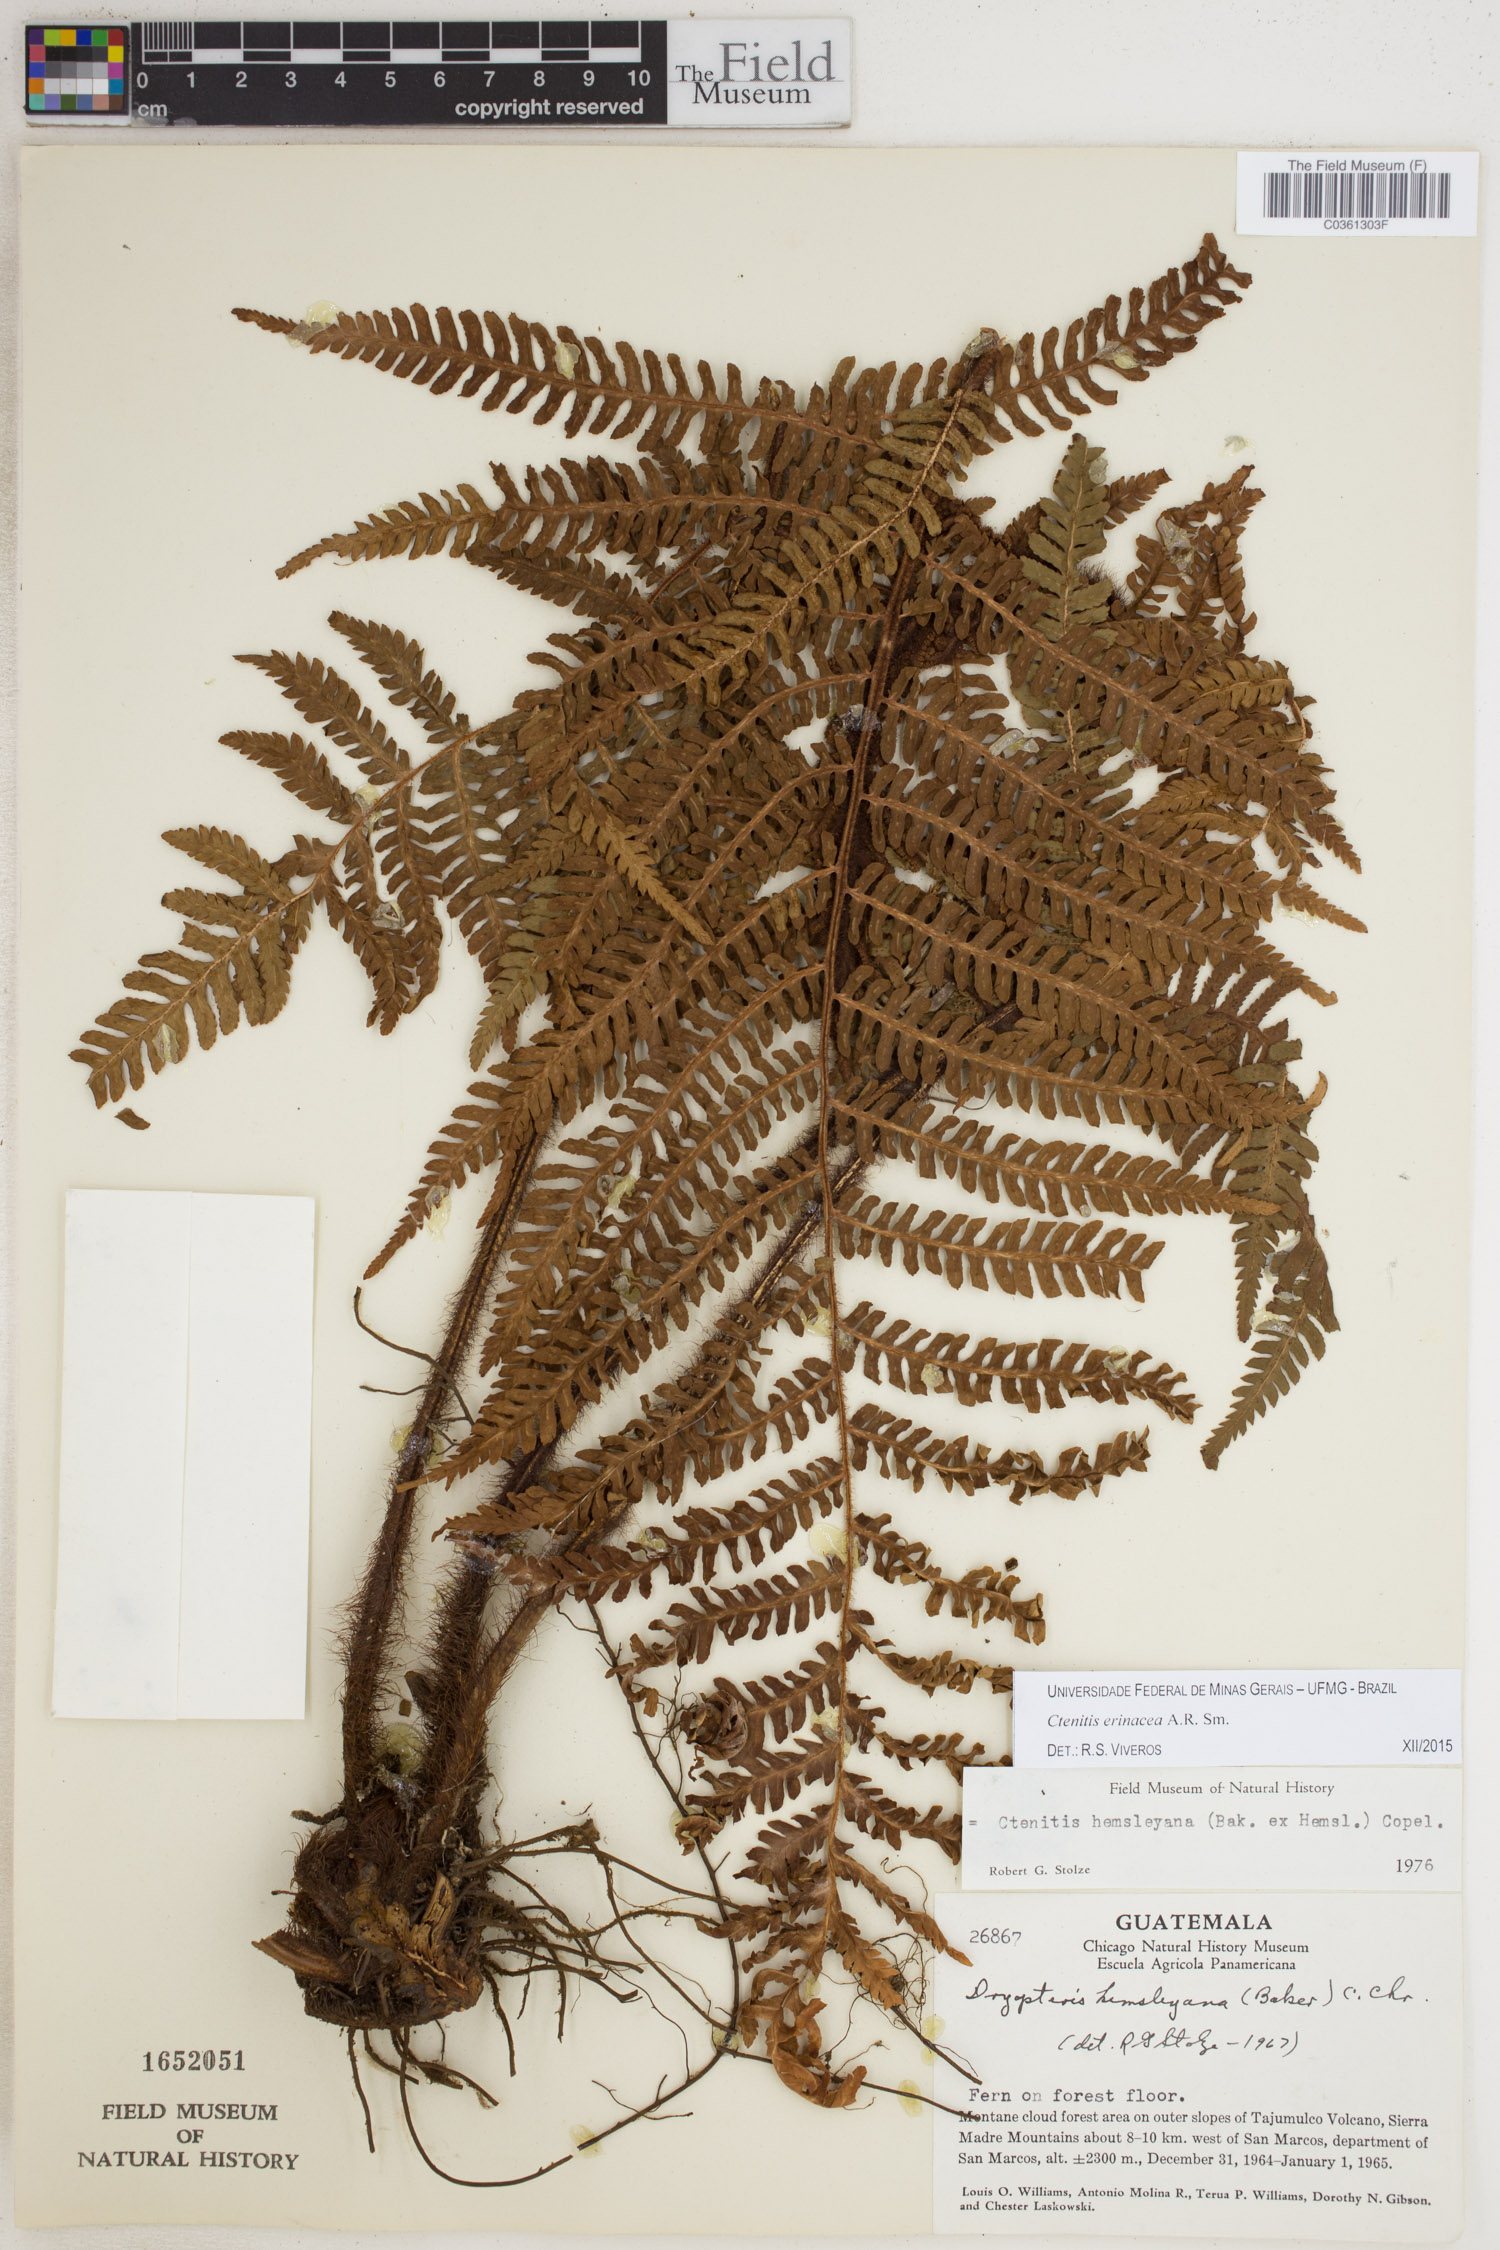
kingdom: Plantae
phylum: Tracheophyta
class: Polypodiopsida
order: Polypodiales
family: Dryopteridaceae
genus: Ctenitis
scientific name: Ctenitis erinacea
